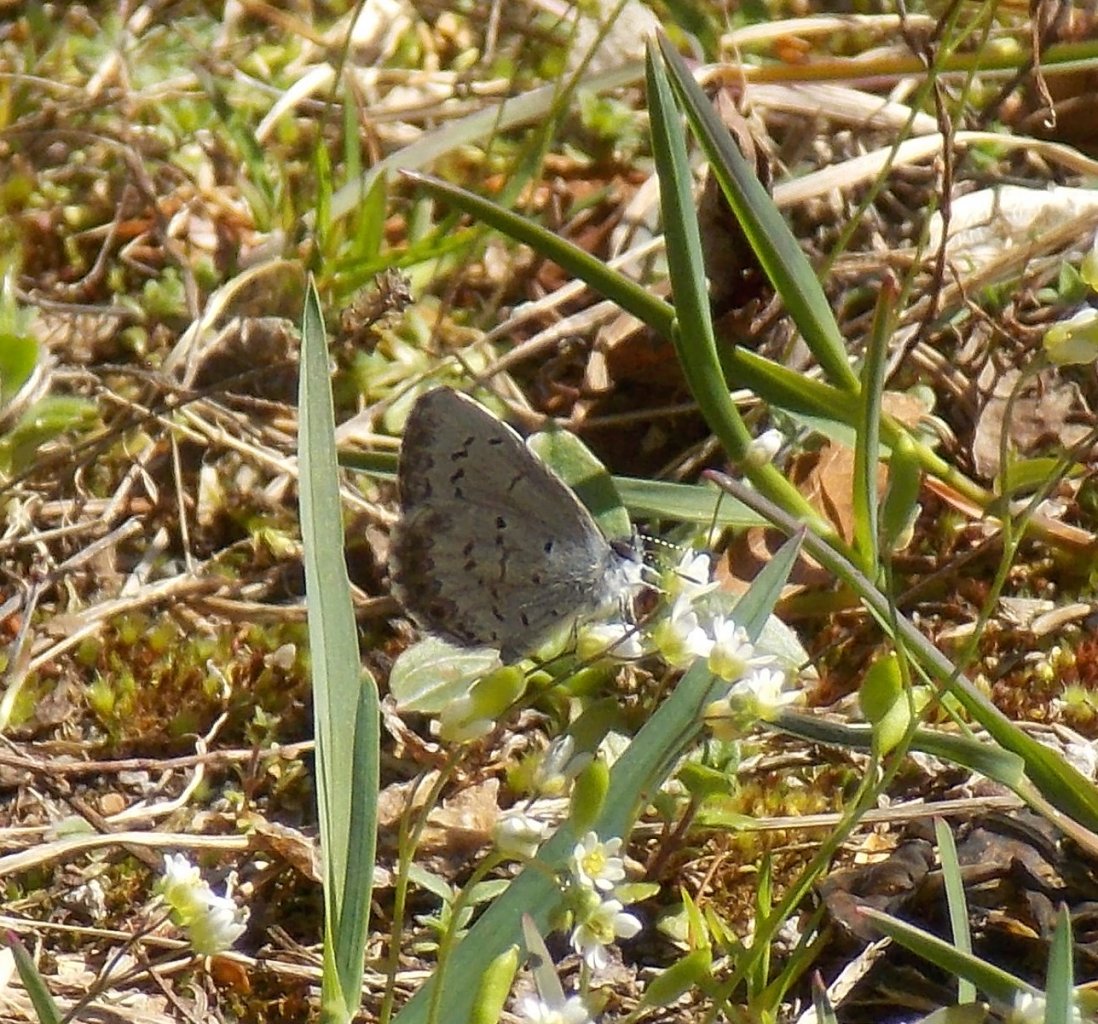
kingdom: Animalia
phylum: Arthropoda
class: Insecta
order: Lepidoptera
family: Lycaenidae
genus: Celastrina
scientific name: Celastrina lucia
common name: Northern Spring Azure
